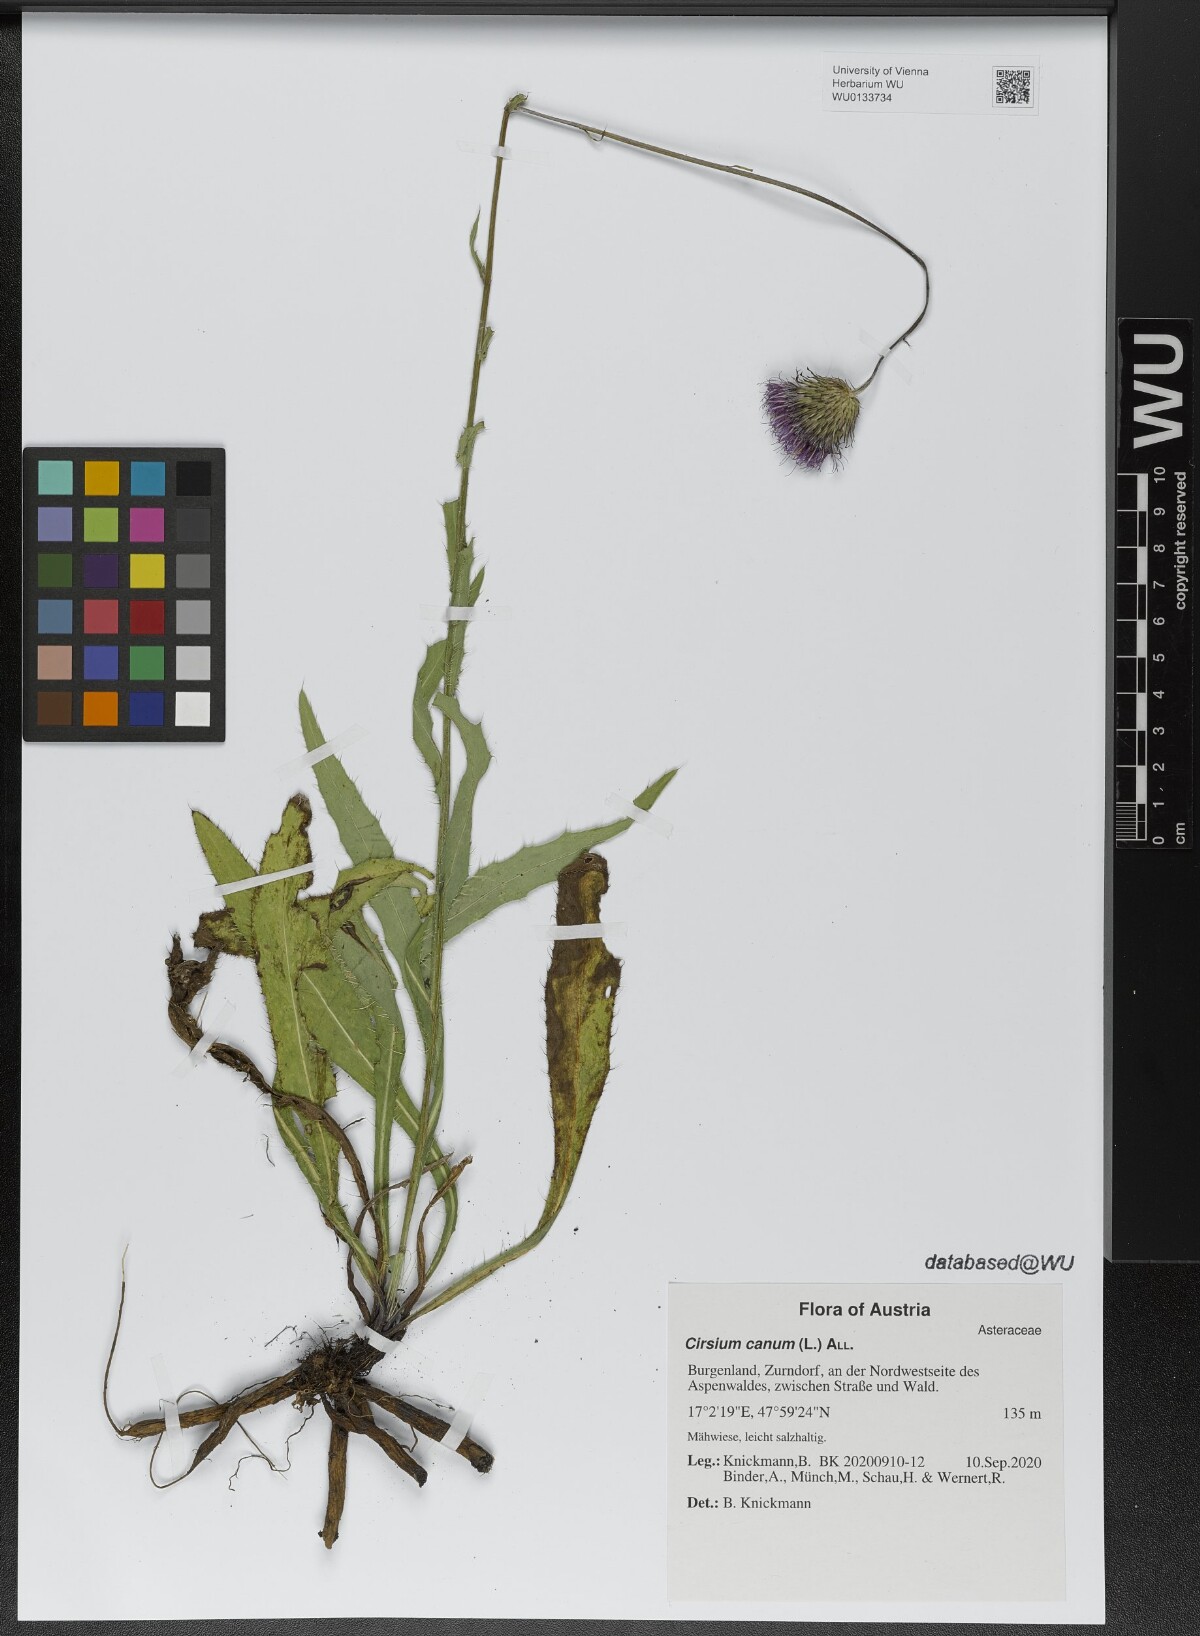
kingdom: Plantae
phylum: Tracheophyta
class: Magnoliopsida
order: Asterales
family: Asteraceae
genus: Cirsium
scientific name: Cirsium canum
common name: Queen anne's thistle
